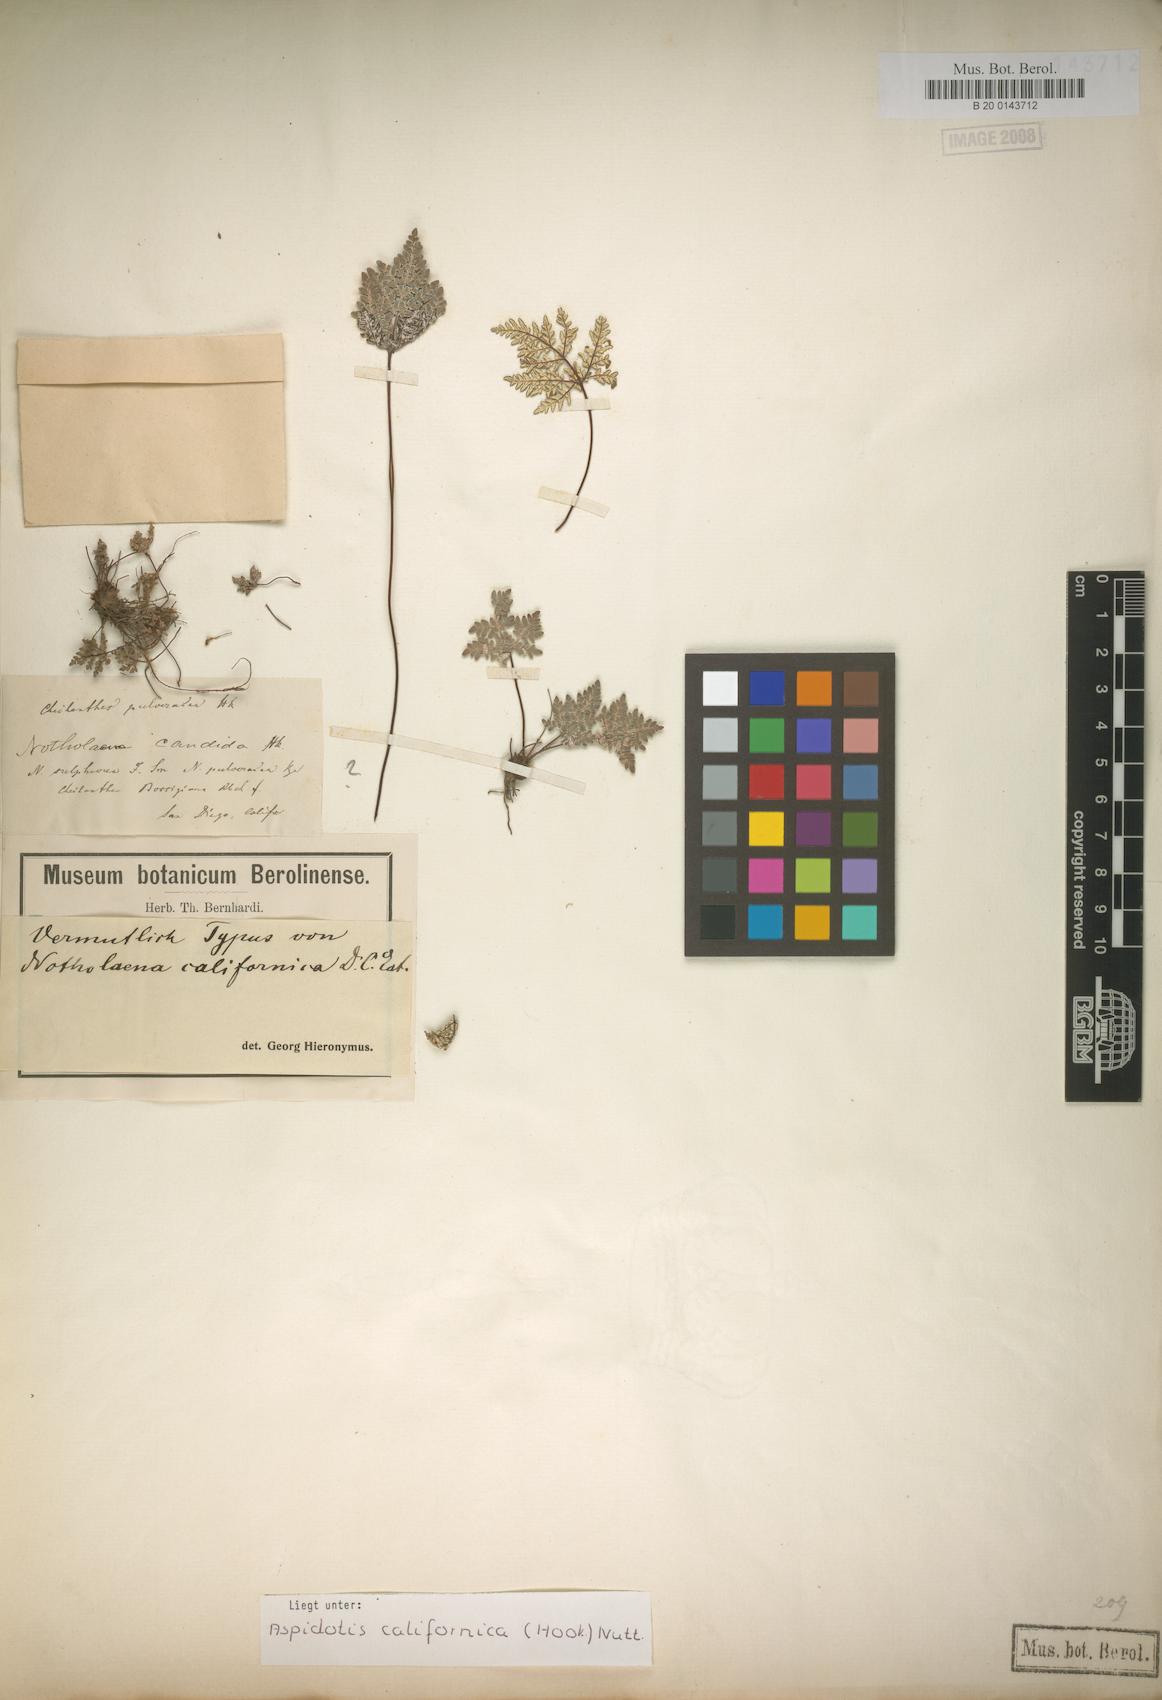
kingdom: Plantae
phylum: Tracheophyta
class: Polypodiopsida
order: Polypodiales
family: Pteridaceae
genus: Notholaena
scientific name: Notholaena californica
